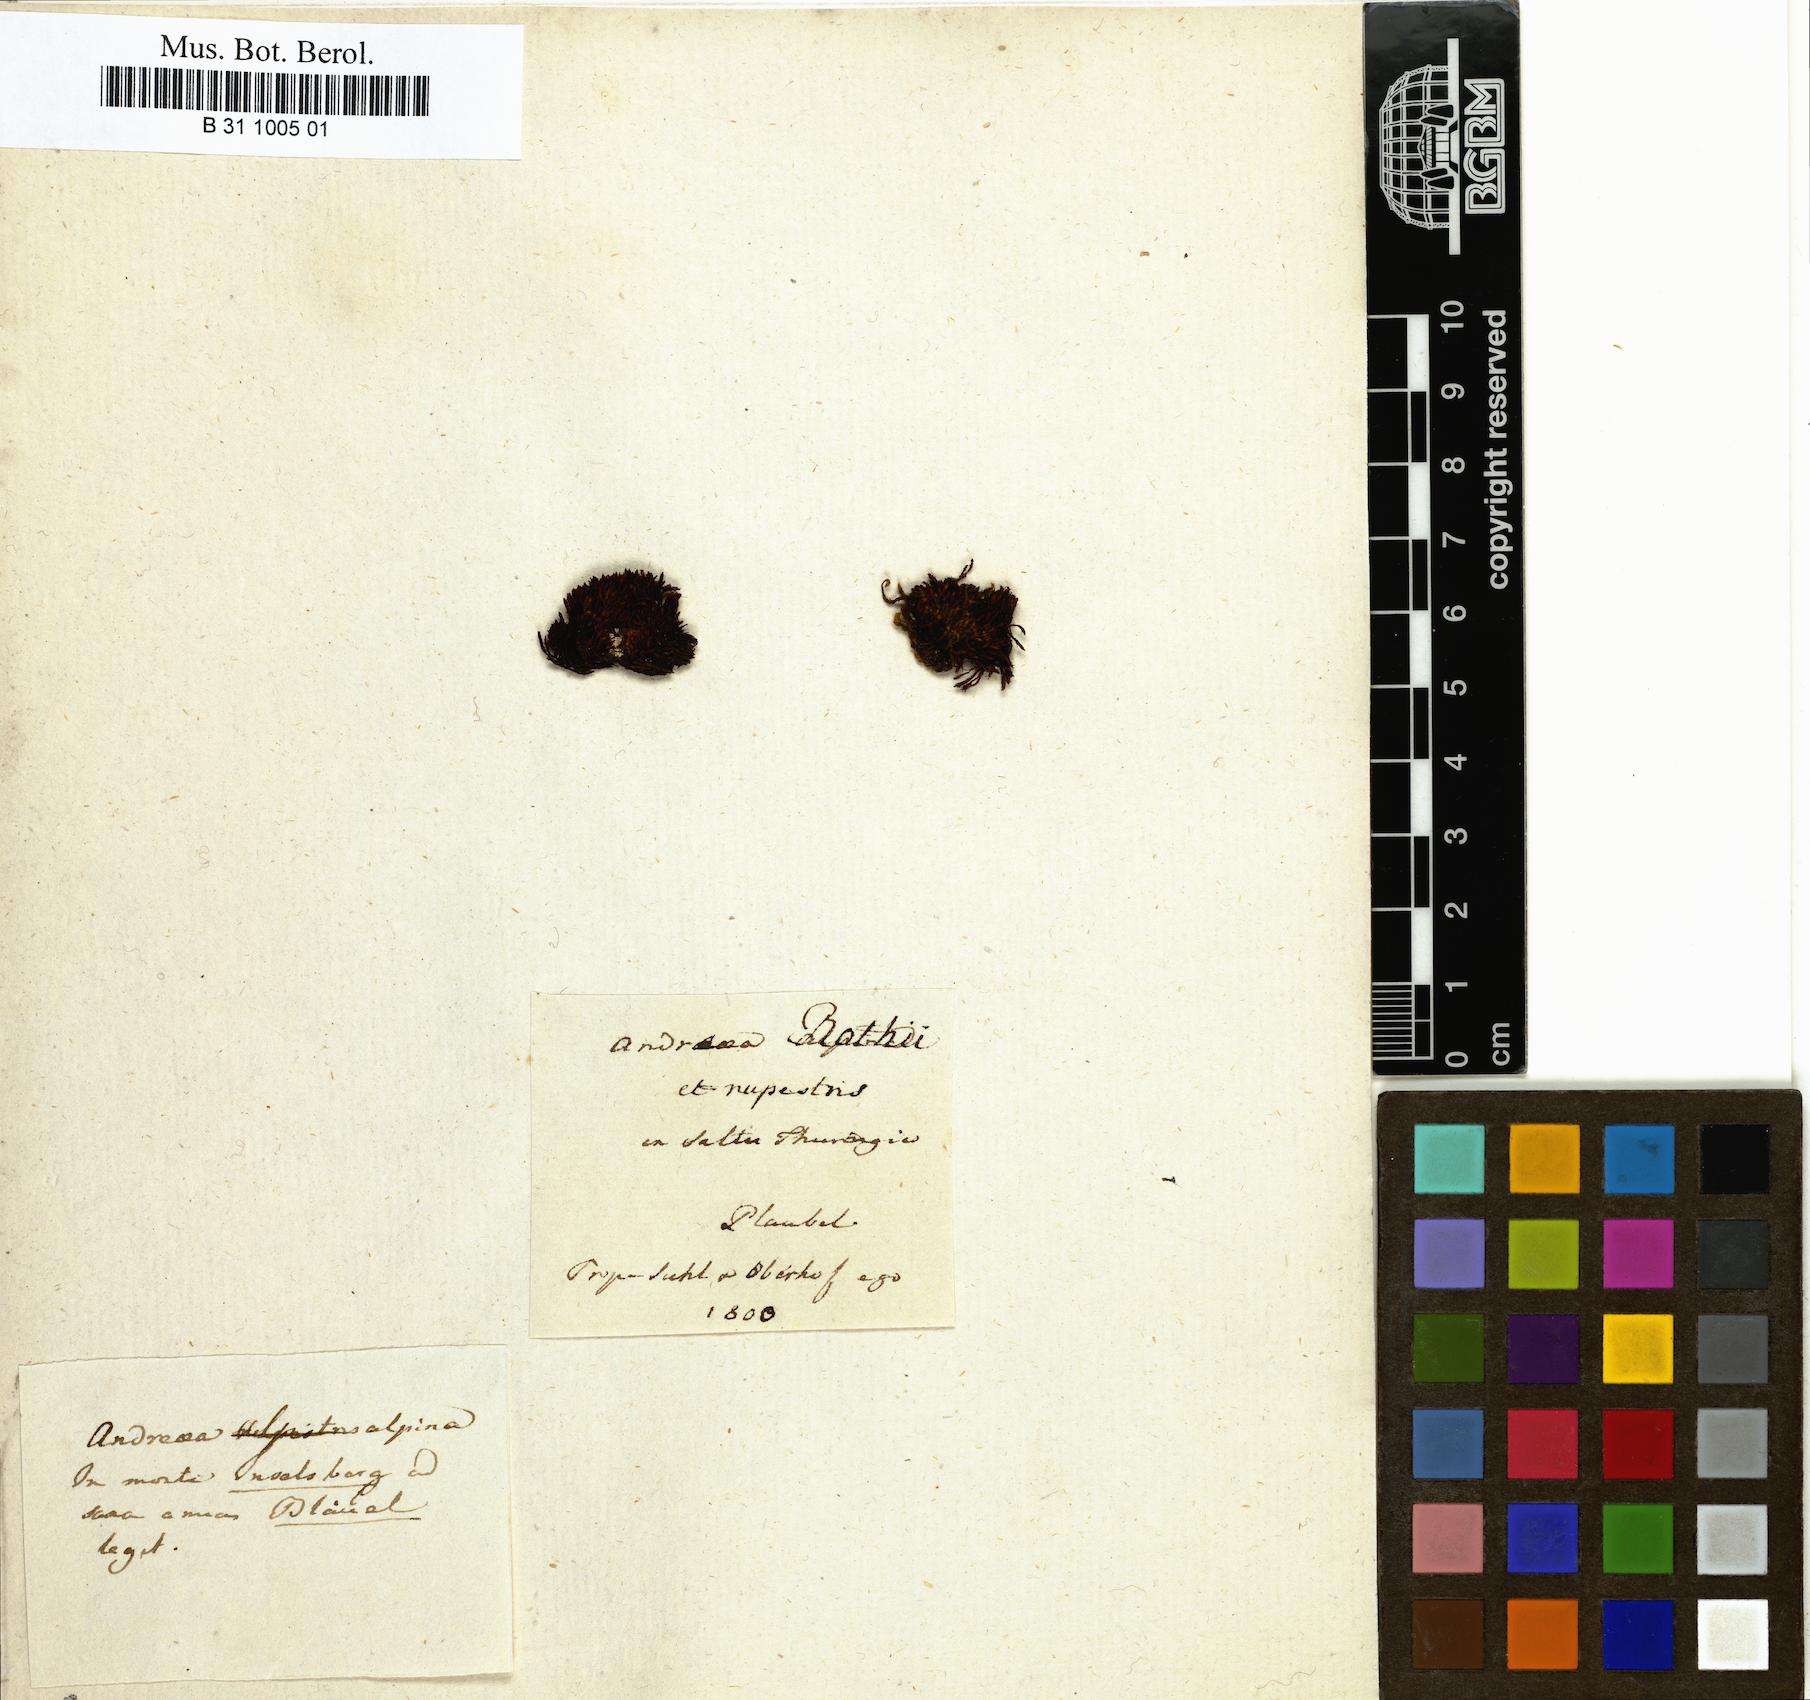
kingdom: Plantae
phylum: Bryophyta
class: Andreaeopsida
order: Andreaeales
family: Andreaeaceae
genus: Andreaea
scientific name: Andreaea rothii
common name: Dusky rock moss
